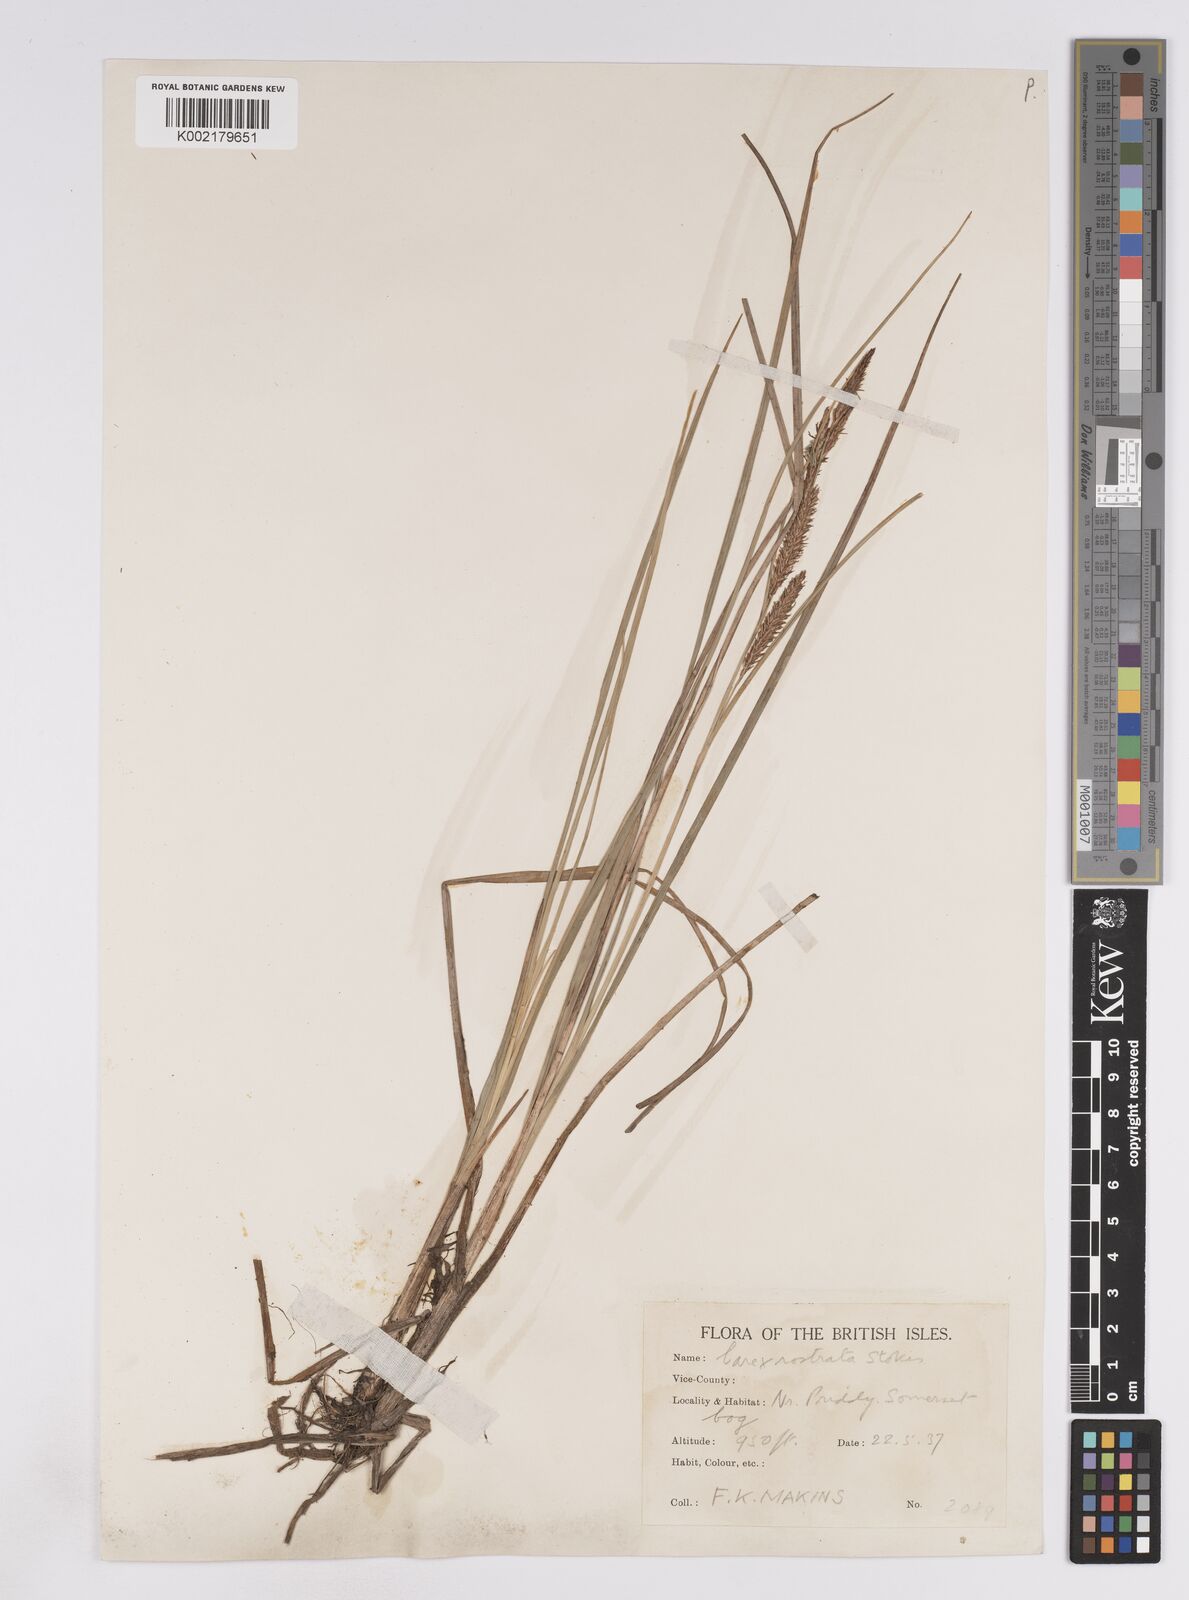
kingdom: Plantae
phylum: Tracheophyta
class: Liliopsida
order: Poales
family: Cyperaceae
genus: Carex
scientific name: Carex rostrata
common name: Bottle sedge
